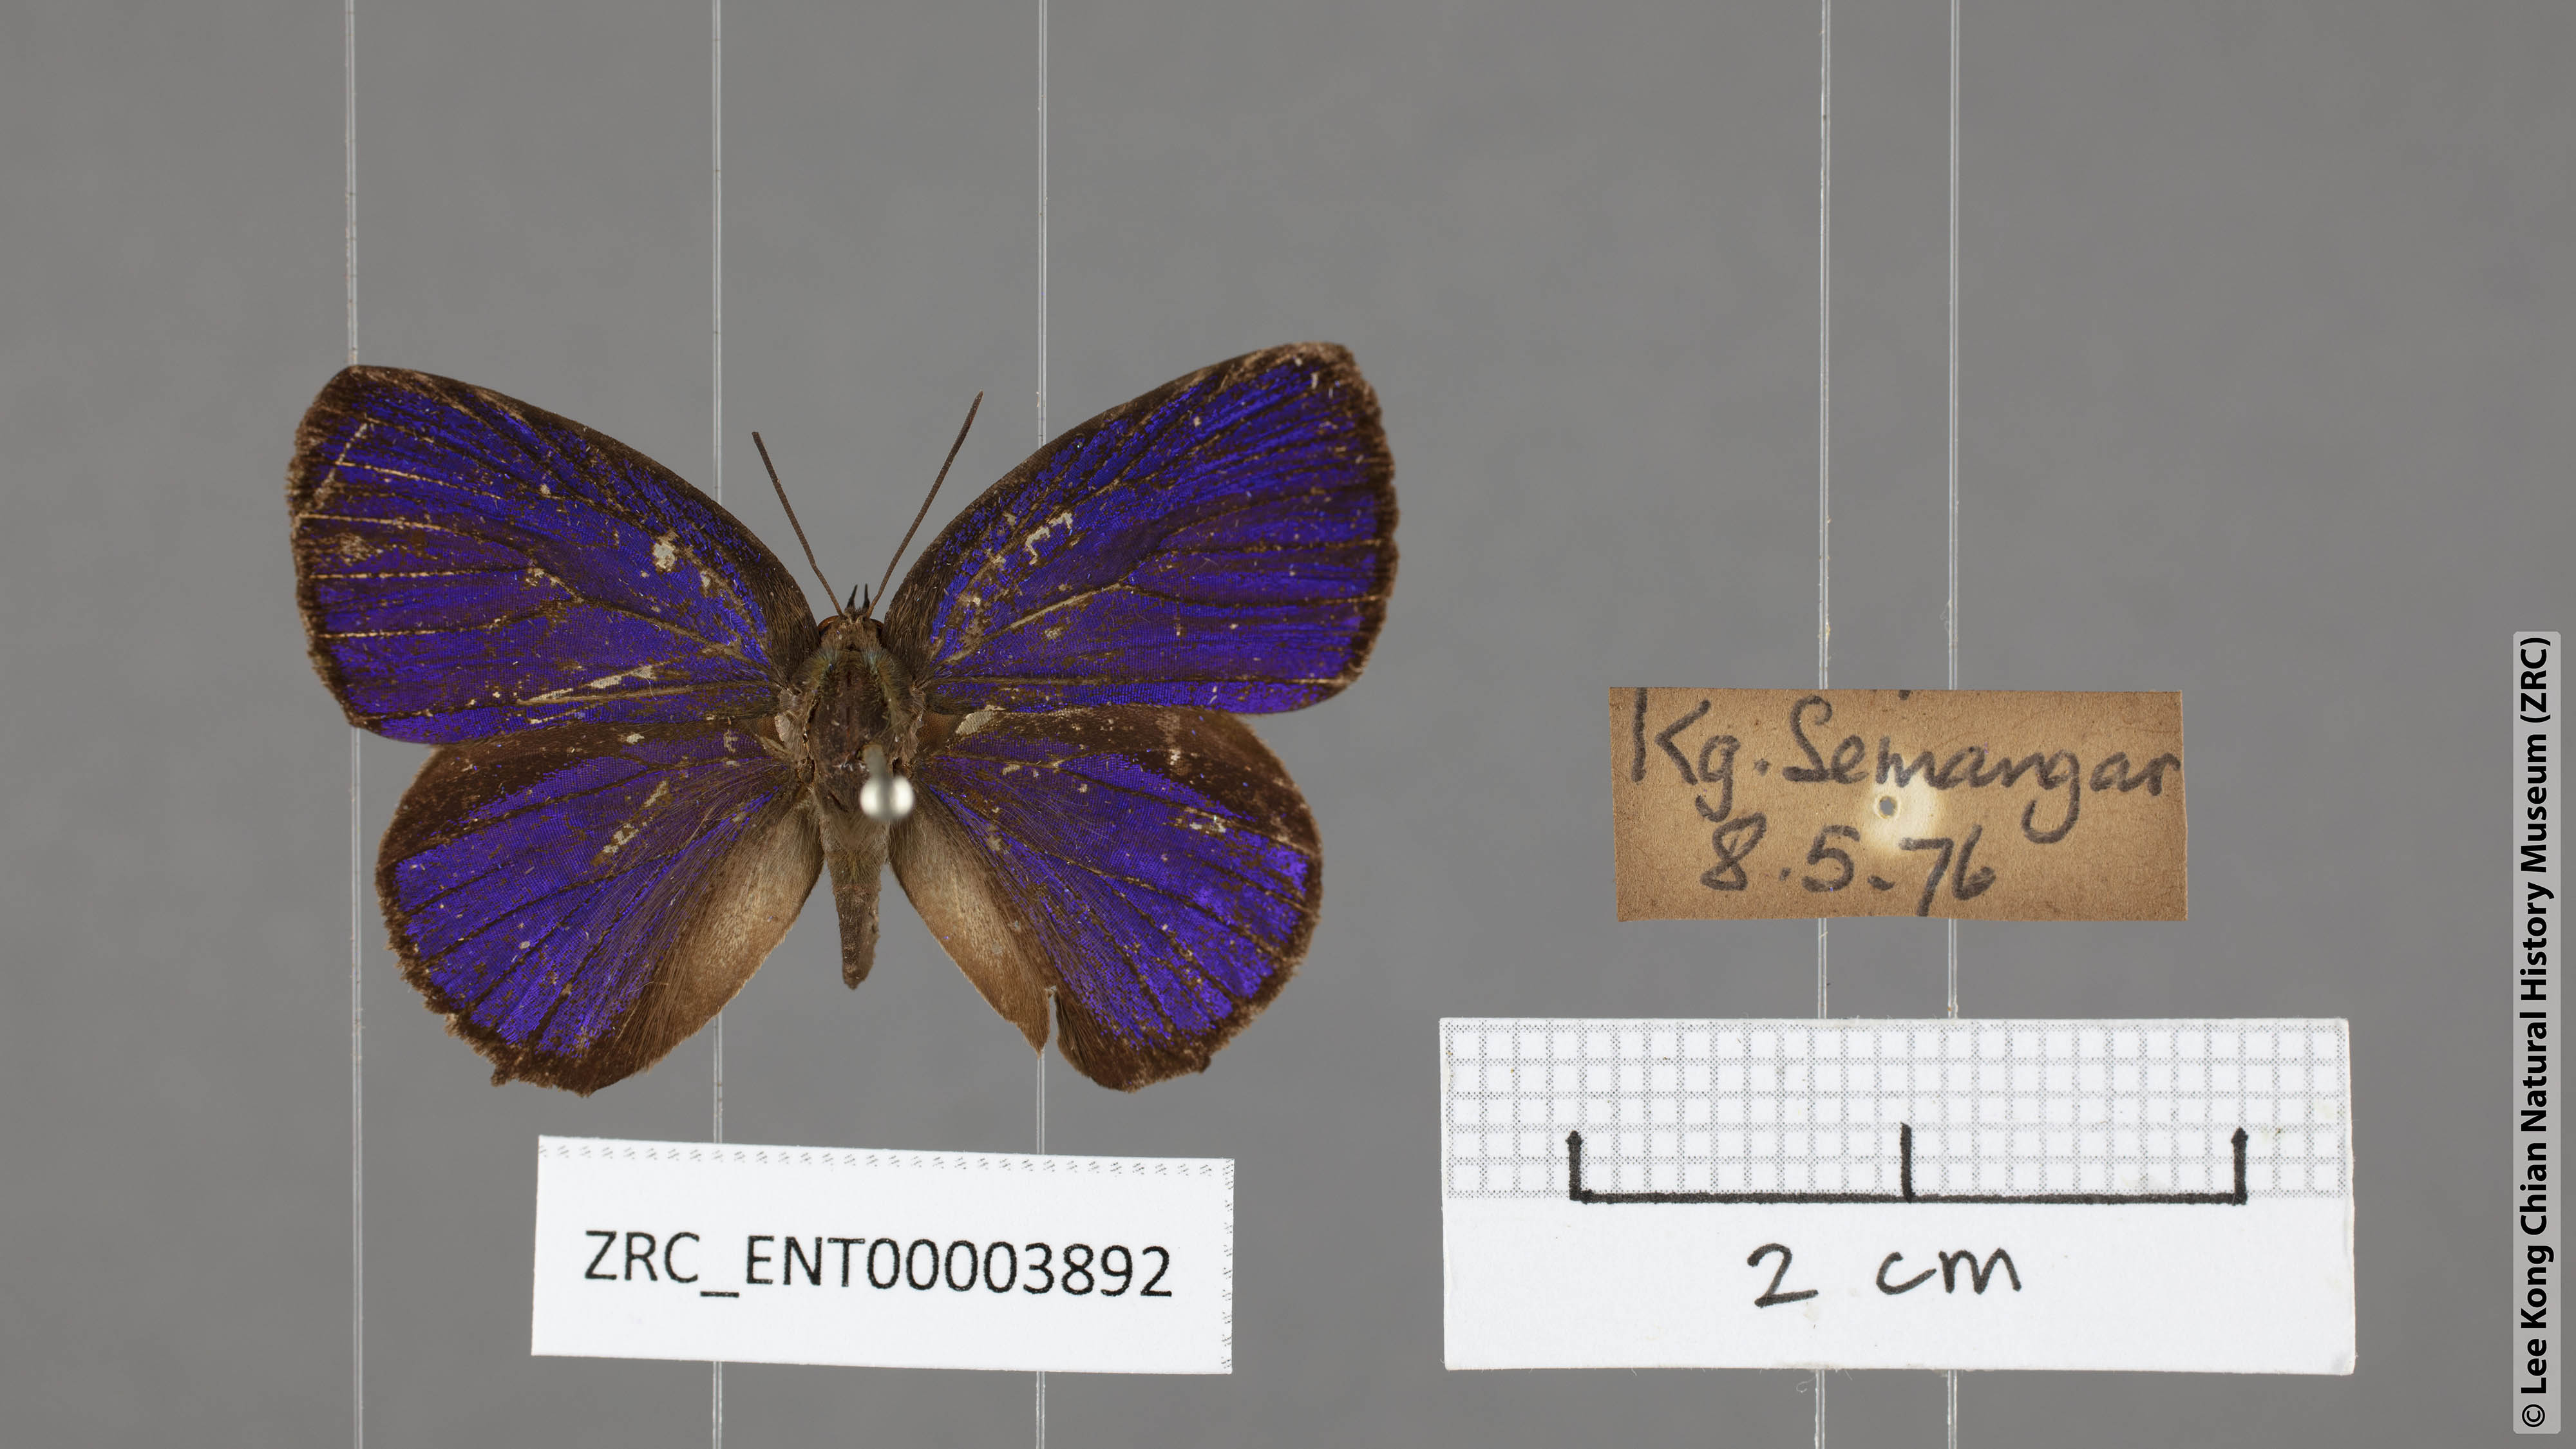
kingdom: Animalia
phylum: Arthropoda
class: Insecta
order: Lepidoptera
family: Lycaenidae
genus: Arhopala
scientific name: Arhopala buddha
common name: Buddha oakblue
